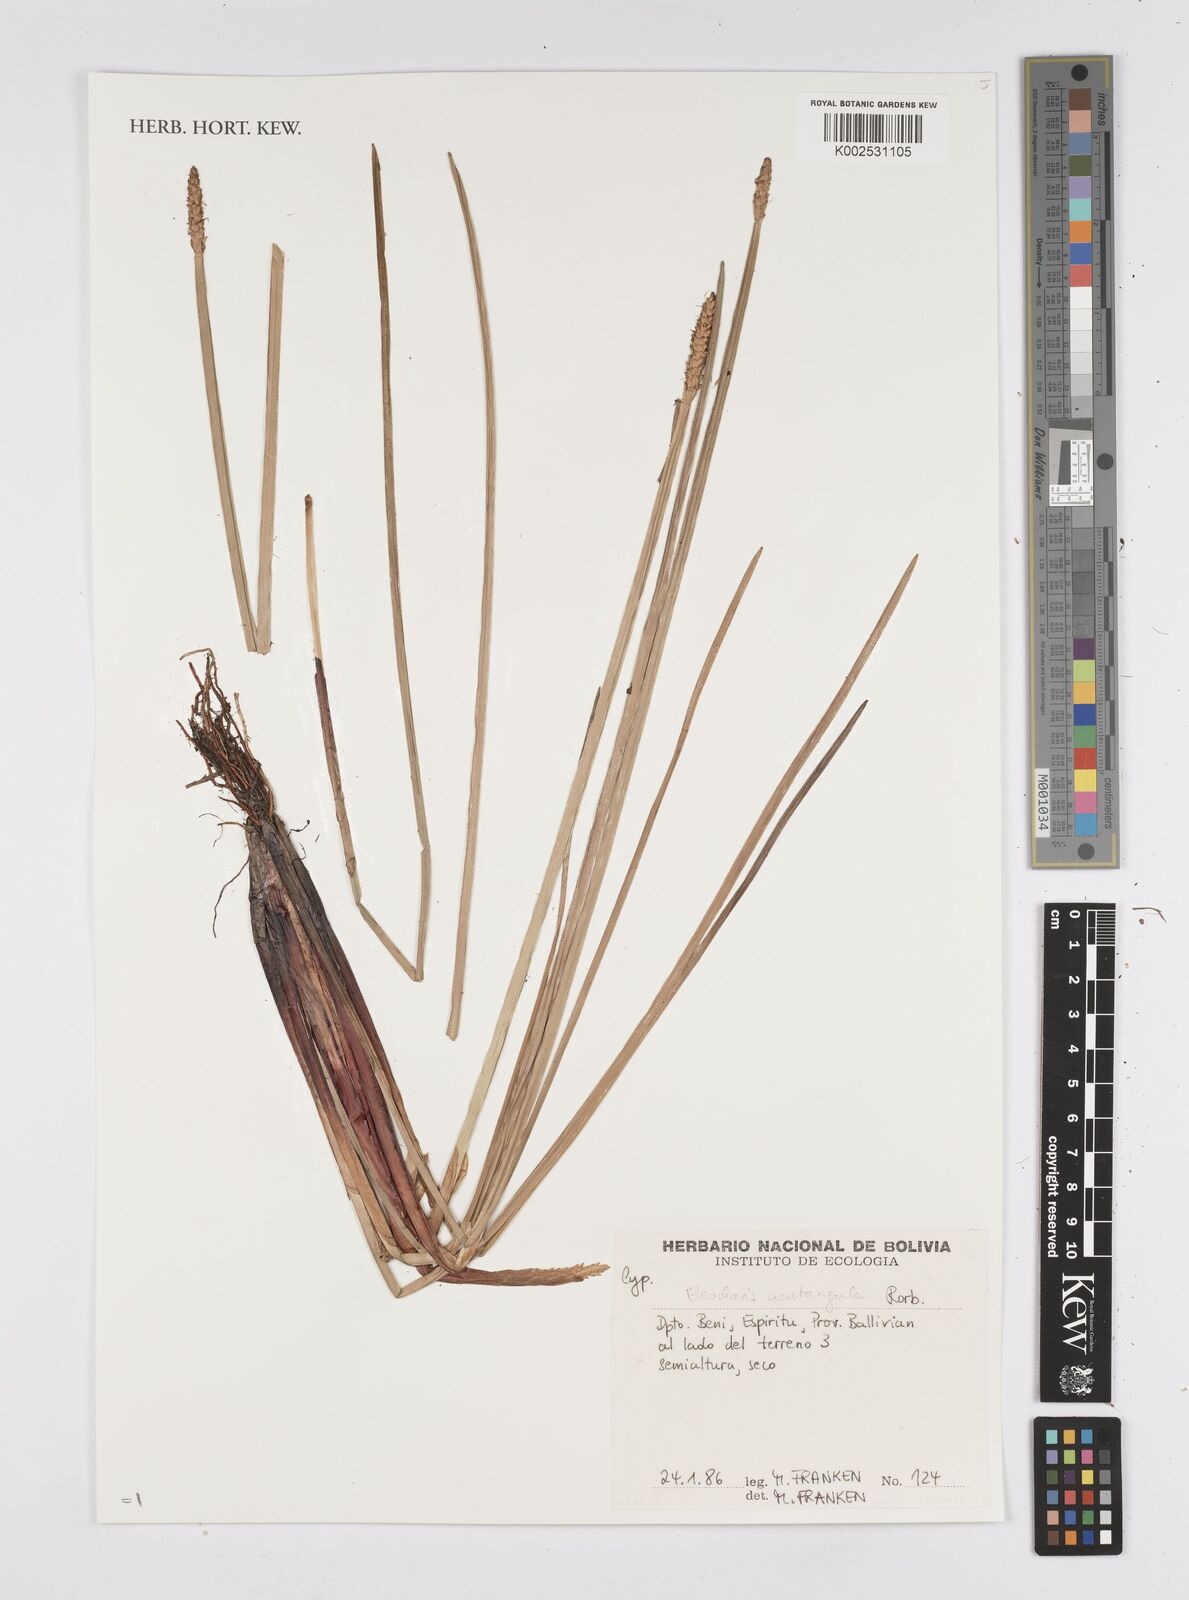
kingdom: Plantae
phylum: Tracheophyta
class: Liliopsida
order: Poales
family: Cyperaceae
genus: Eleocharis
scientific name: Eleocharis acutangula
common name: Acute spikerush
